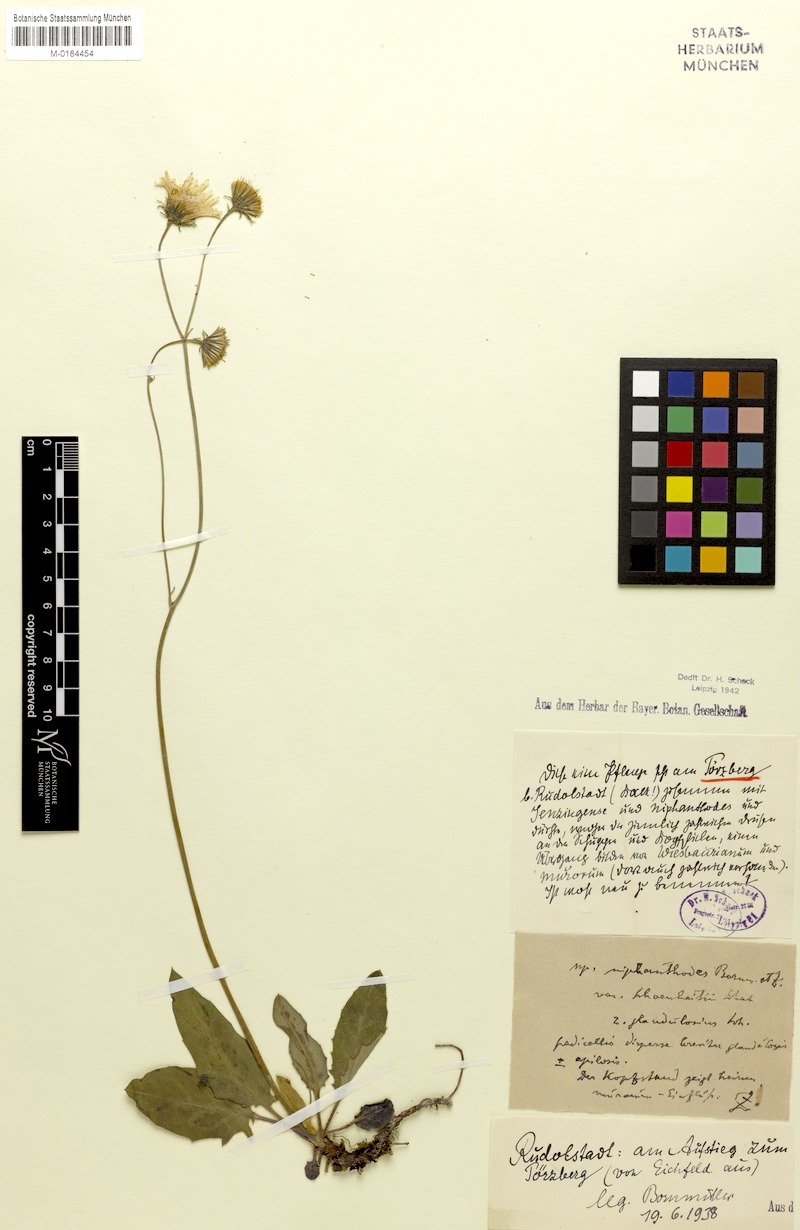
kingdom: Plantae
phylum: Tracheophyta
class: Magnoliopsida
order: Asterales
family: Asteraceae
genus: Hieracium
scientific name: Hieracium hypochoeroides
